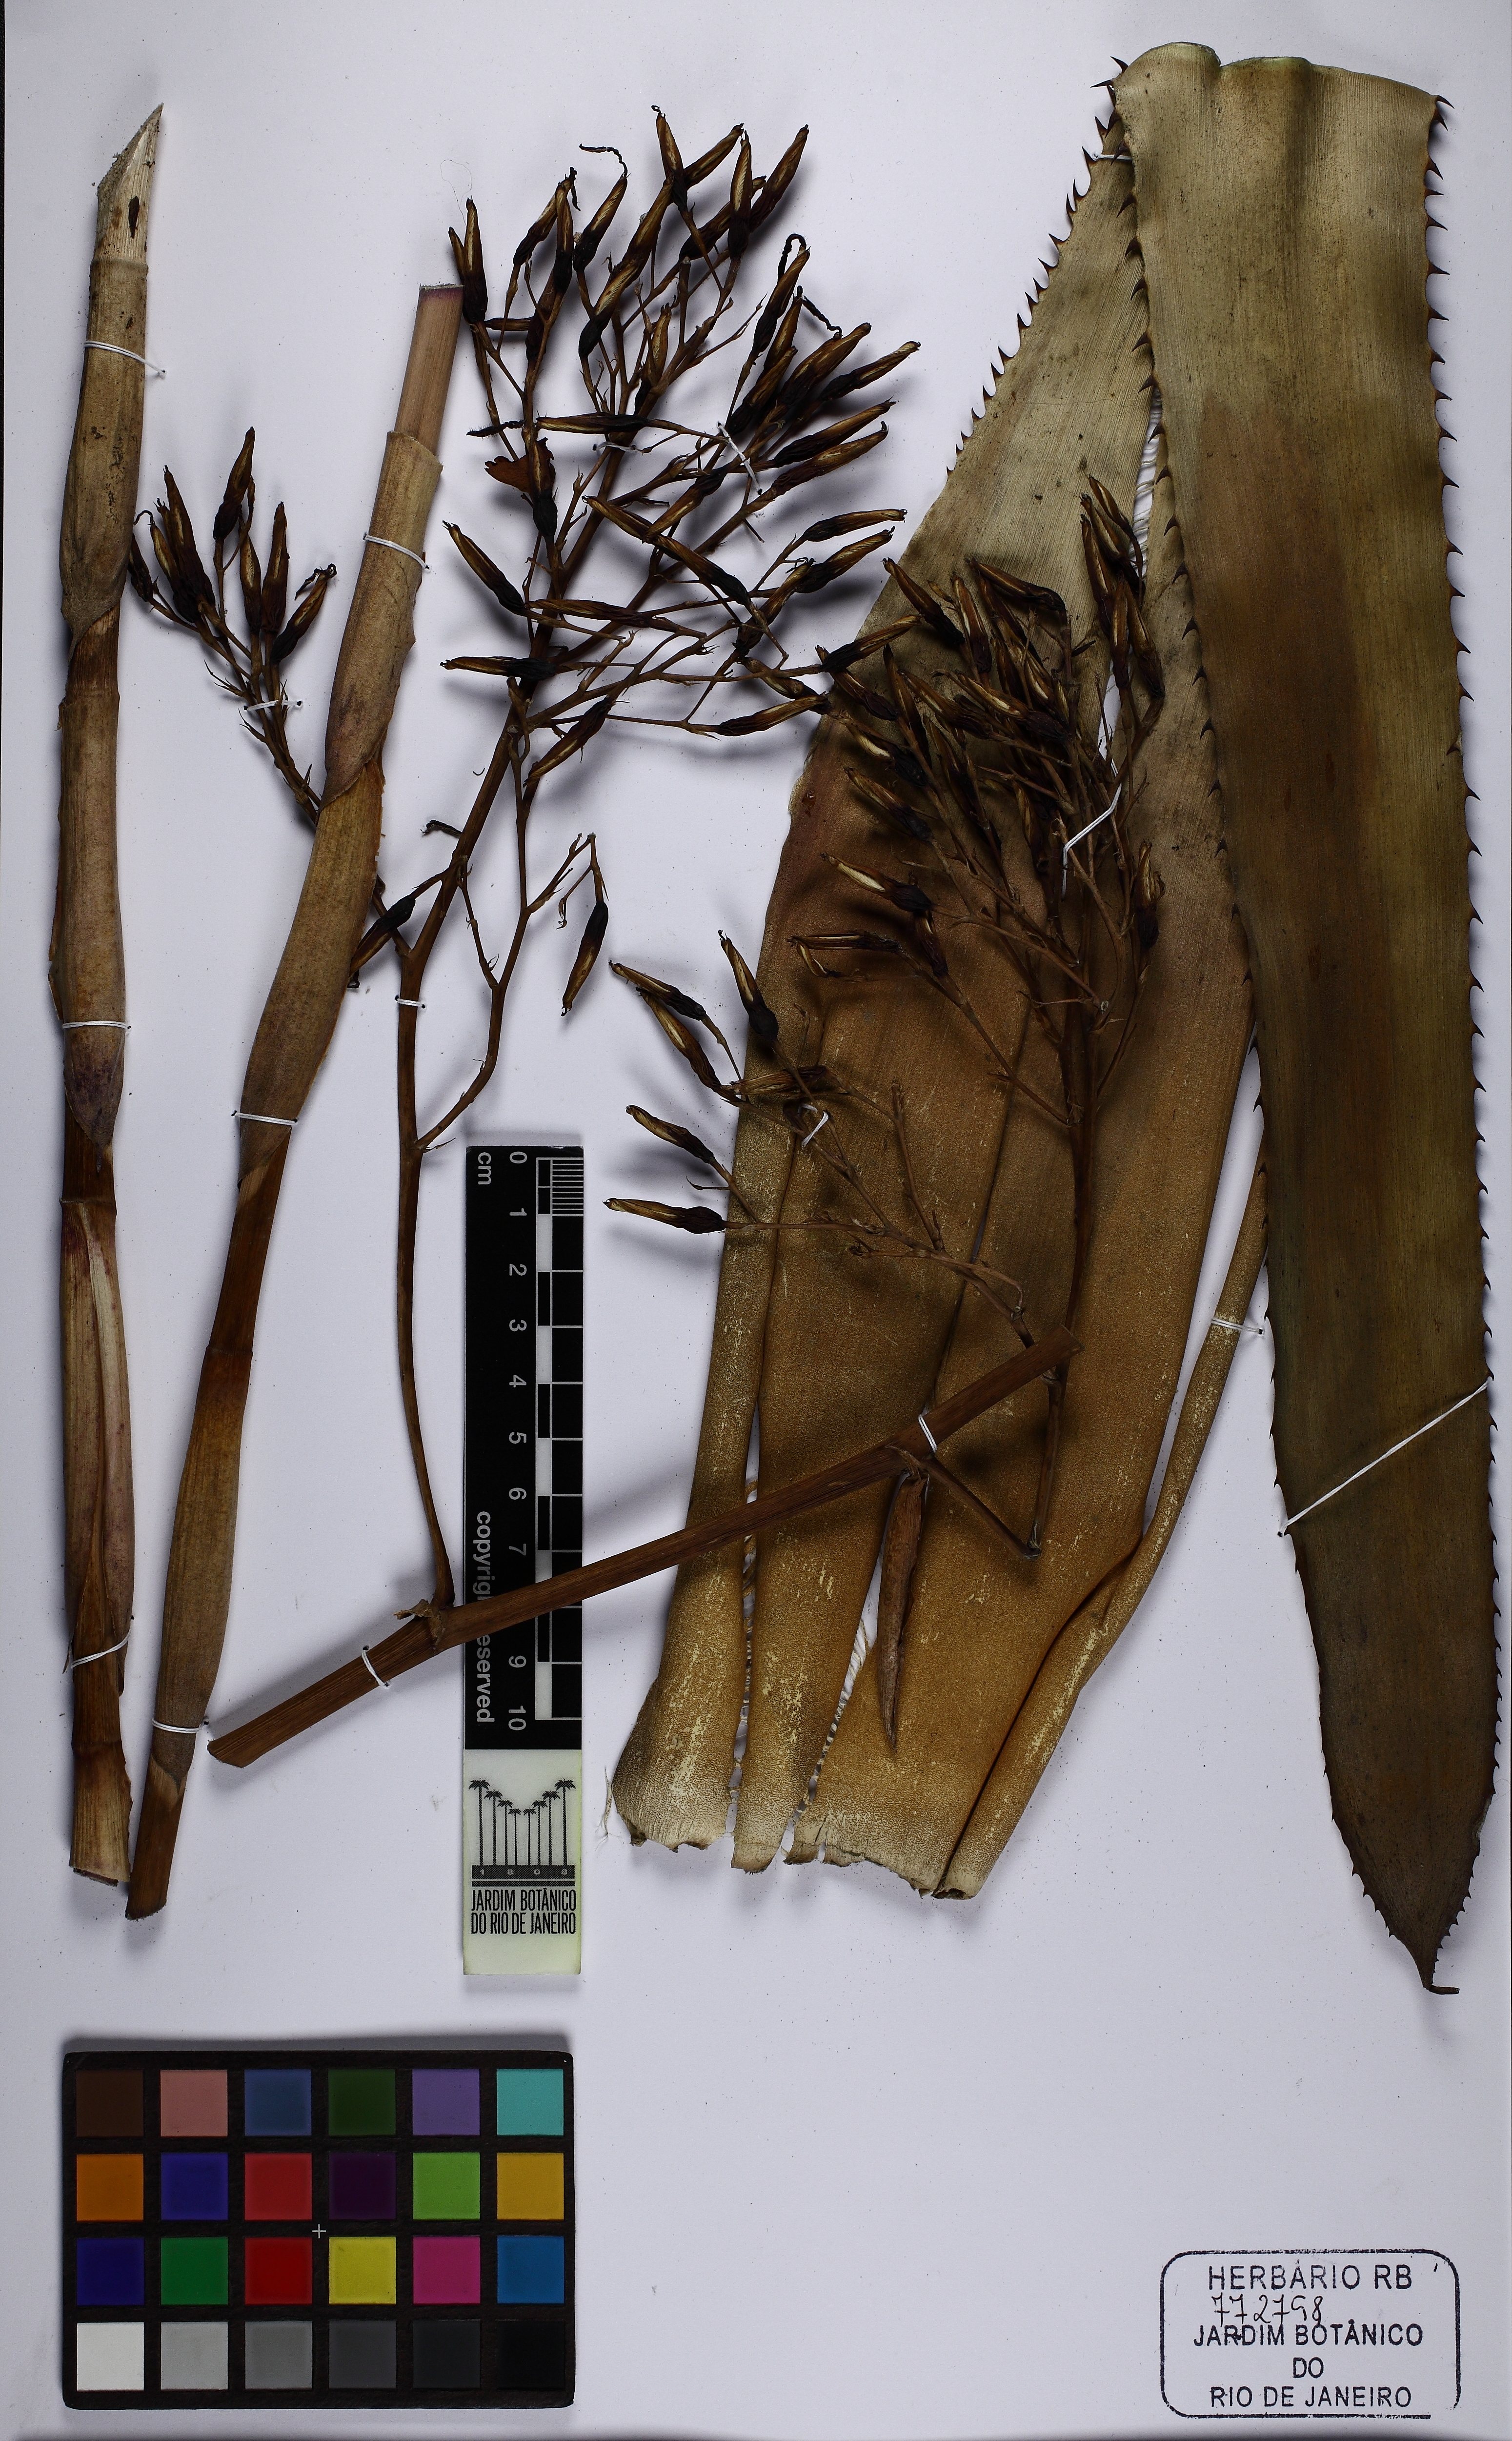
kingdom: Plantae
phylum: Tracheophyta
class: Liliopsida
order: Poales
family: Bromeliaceae
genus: Aechmea
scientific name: Aechmea leptantha
